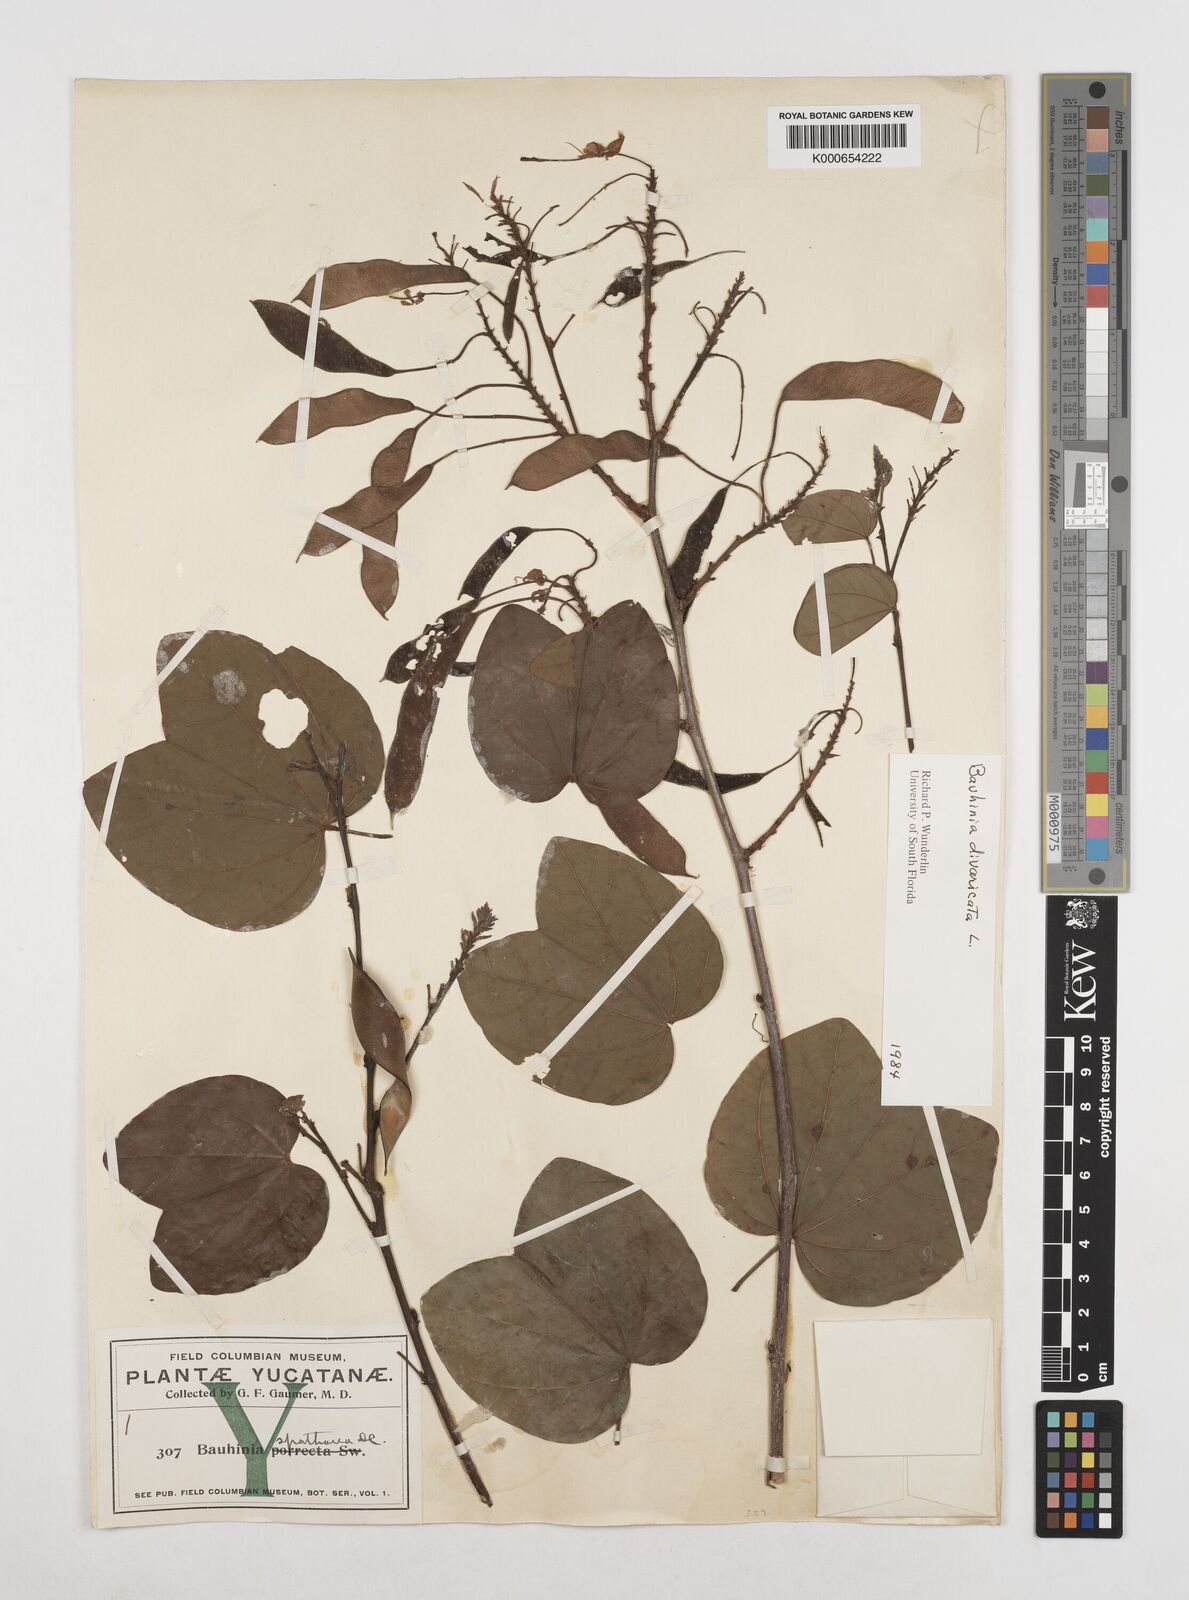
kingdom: Plantae
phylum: Tracheophyta
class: Magnoliopsida
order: Fabales
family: Fabaceae
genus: Bauhinia
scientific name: Bauhinia divaricata
